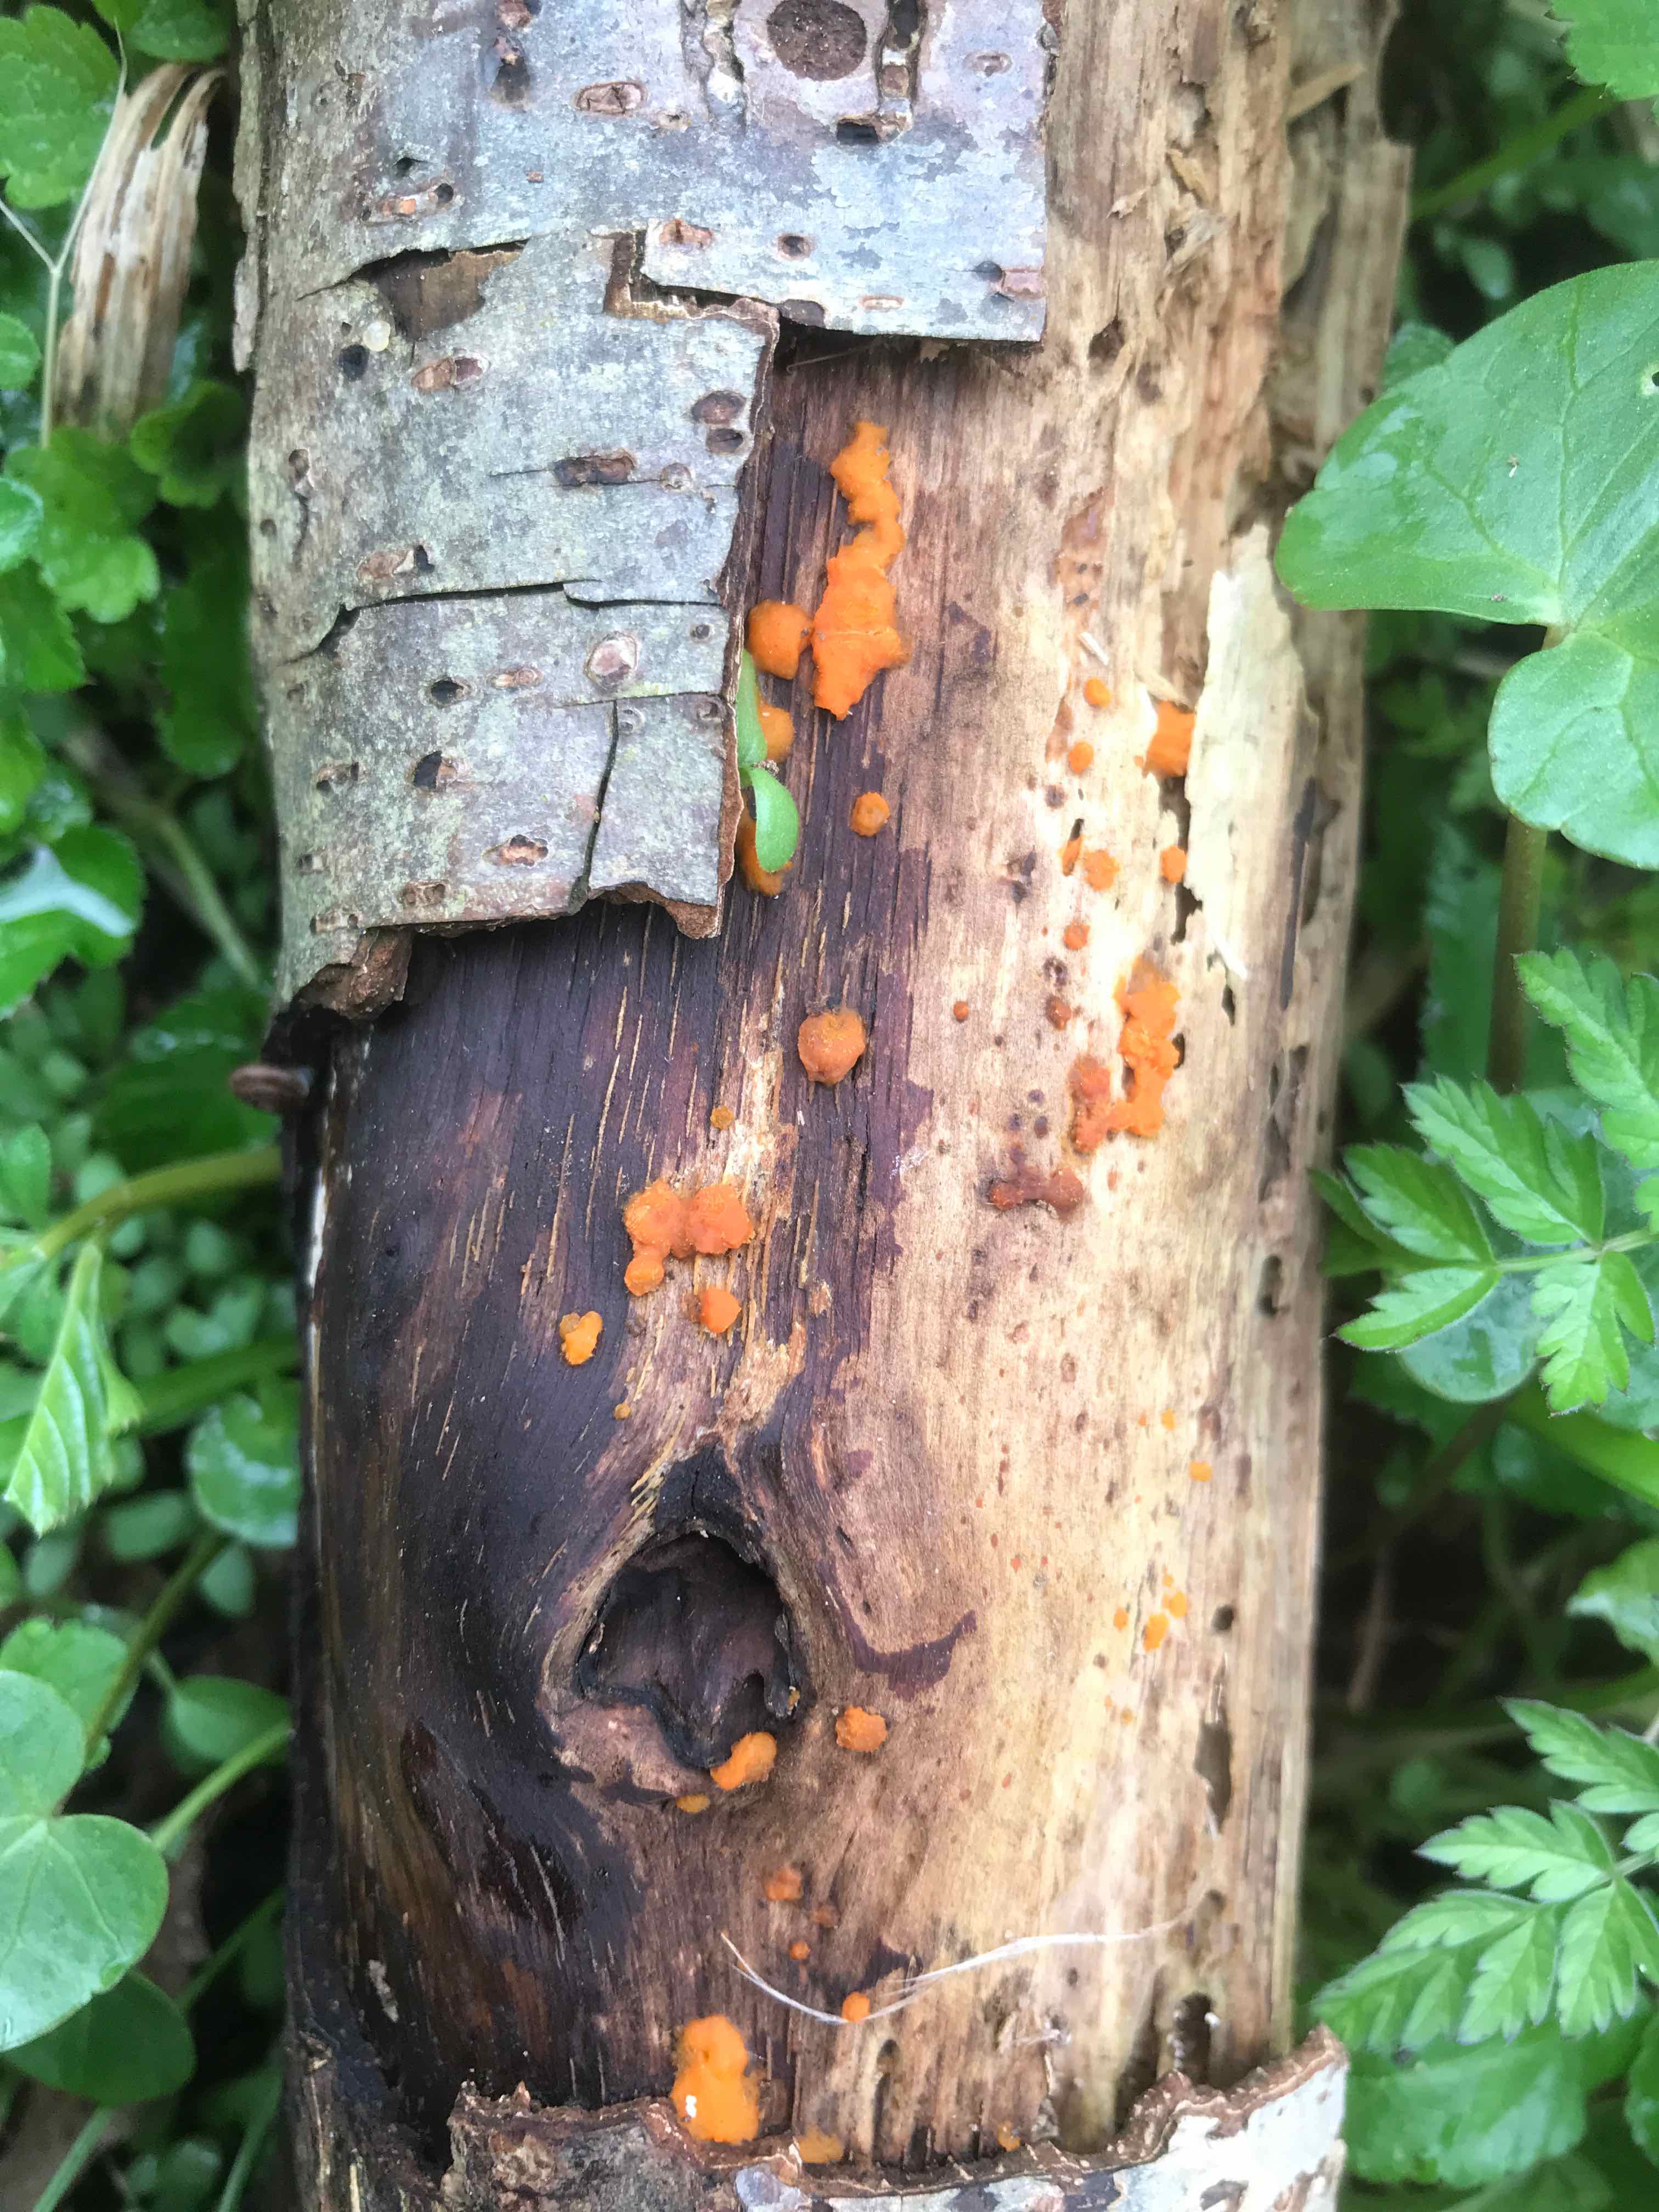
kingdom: Fungi
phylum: Basidiomycota
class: Dacrymycetes
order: Dacrymycetales
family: Dacrymycetaceae
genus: Dacrymyces
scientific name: Dacrymyces stillatus
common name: almindelig tåresvamp
